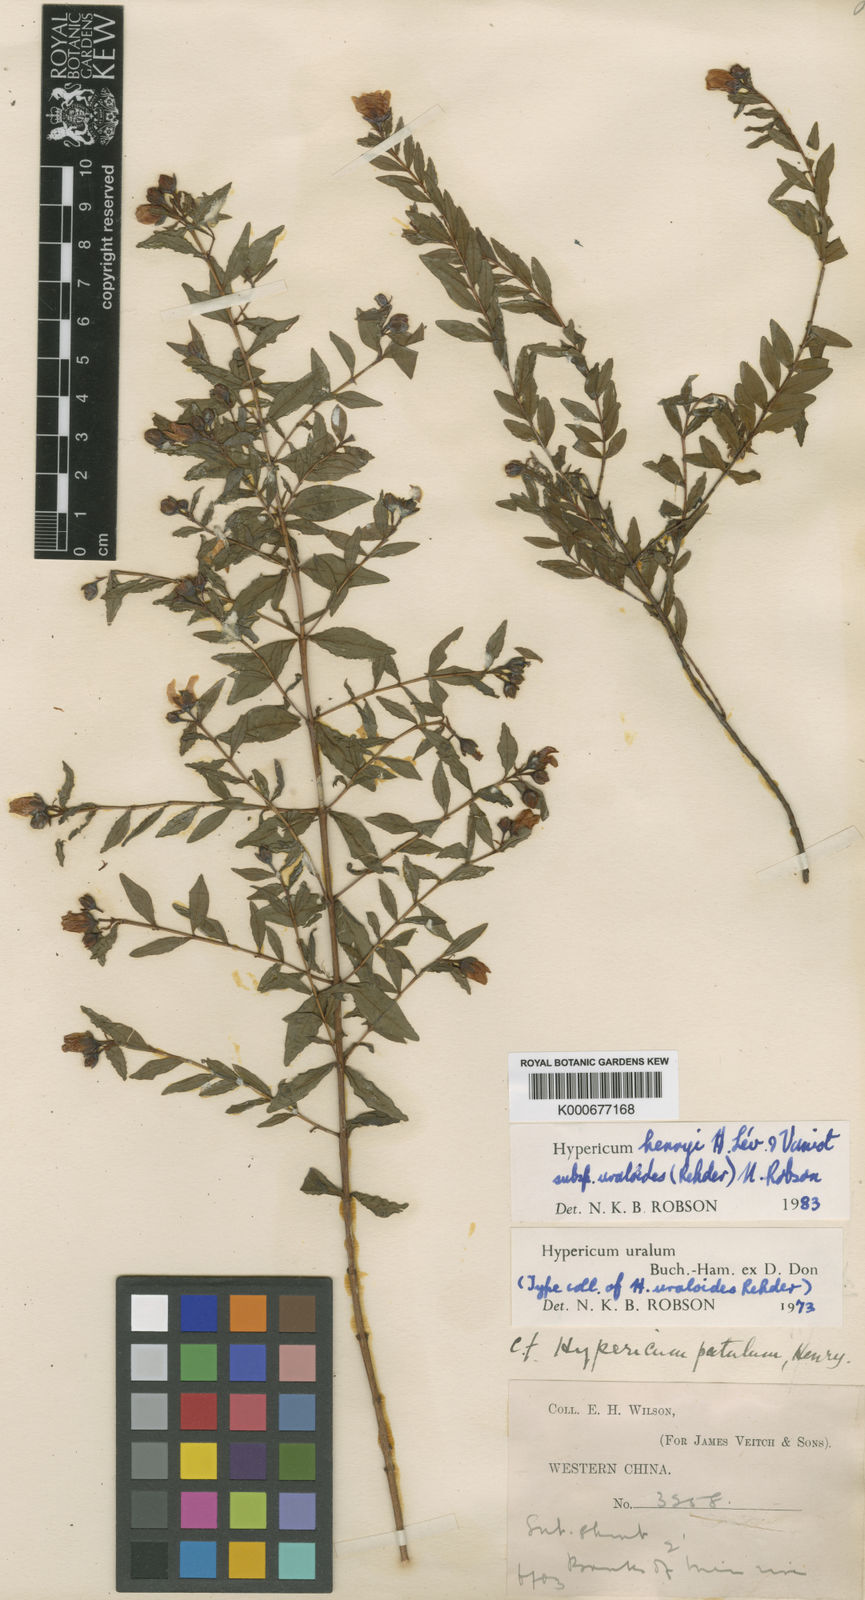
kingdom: Plantae
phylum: Tracheophyta
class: Magnoliopsida
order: Malpighiales
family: Hypericaceae
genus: Hypericum
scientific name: Hypericum
